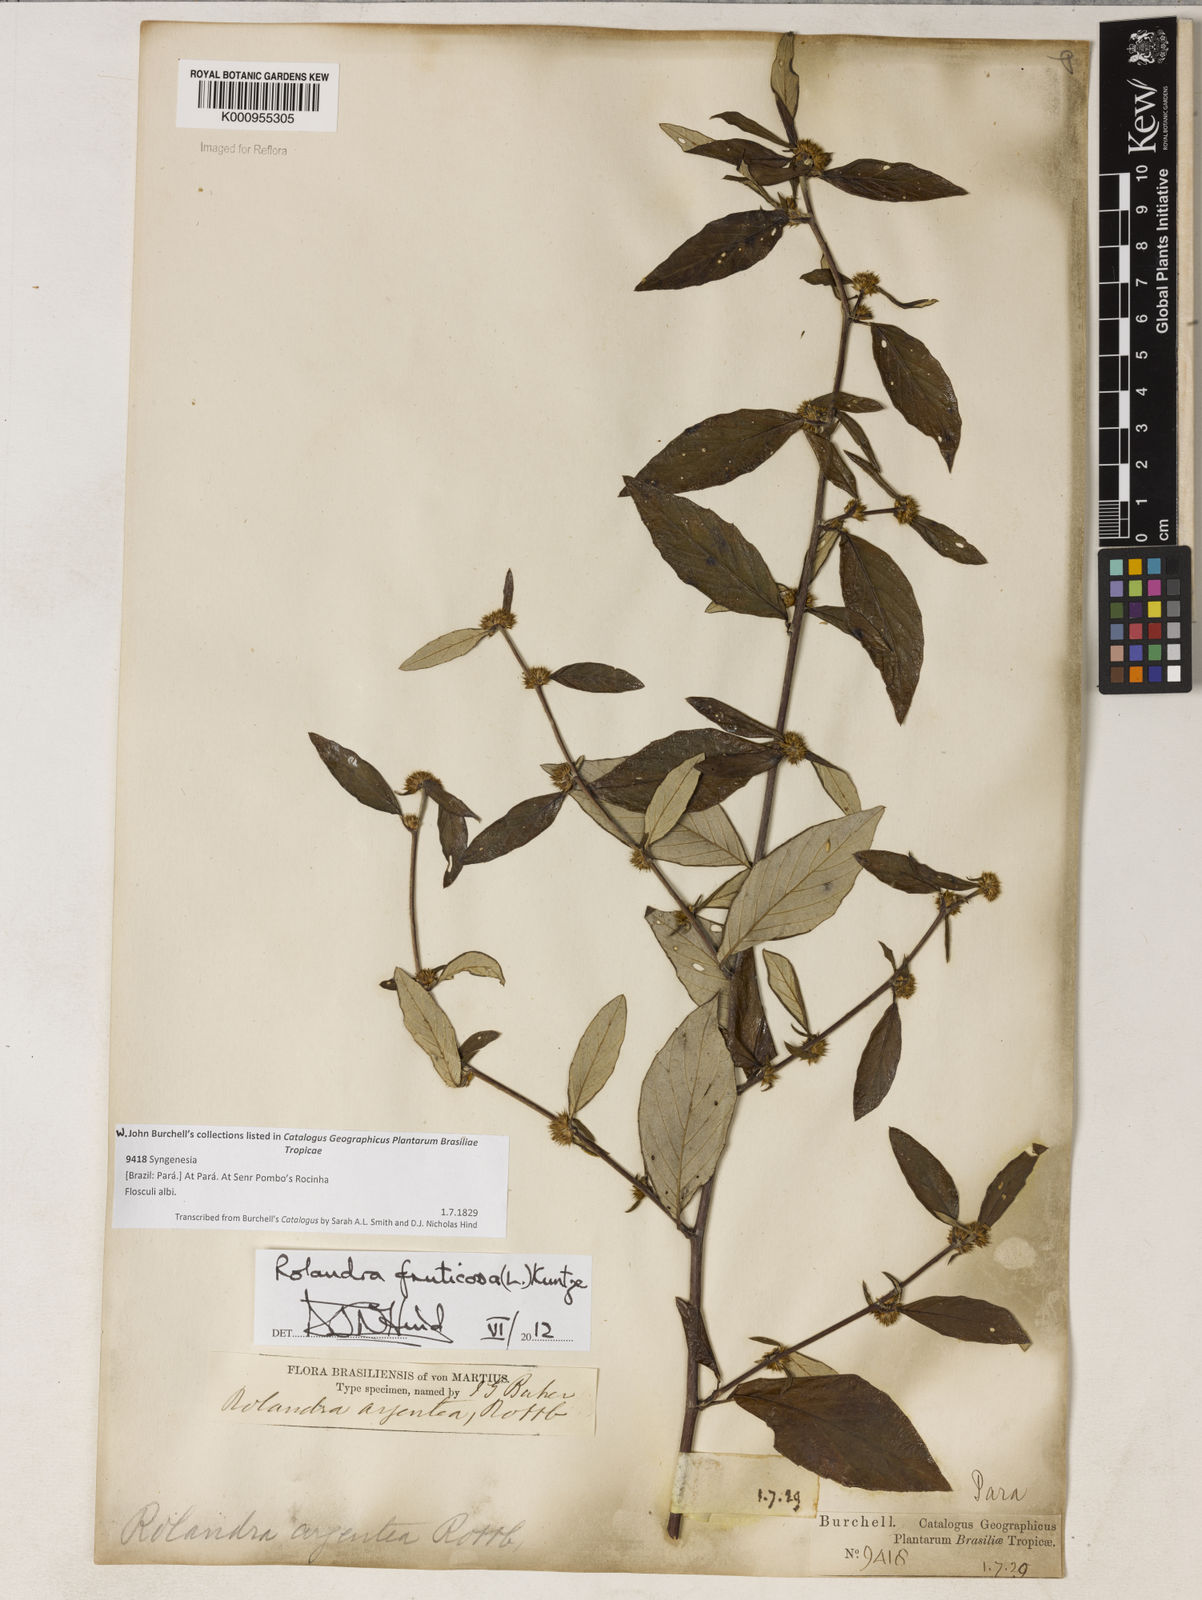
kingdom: Plantae
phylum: Tracheophyta
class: Magnoliopsida
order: Asterales
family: Asteraceae
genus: Rolandra
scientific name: Rolandra fruticosa
